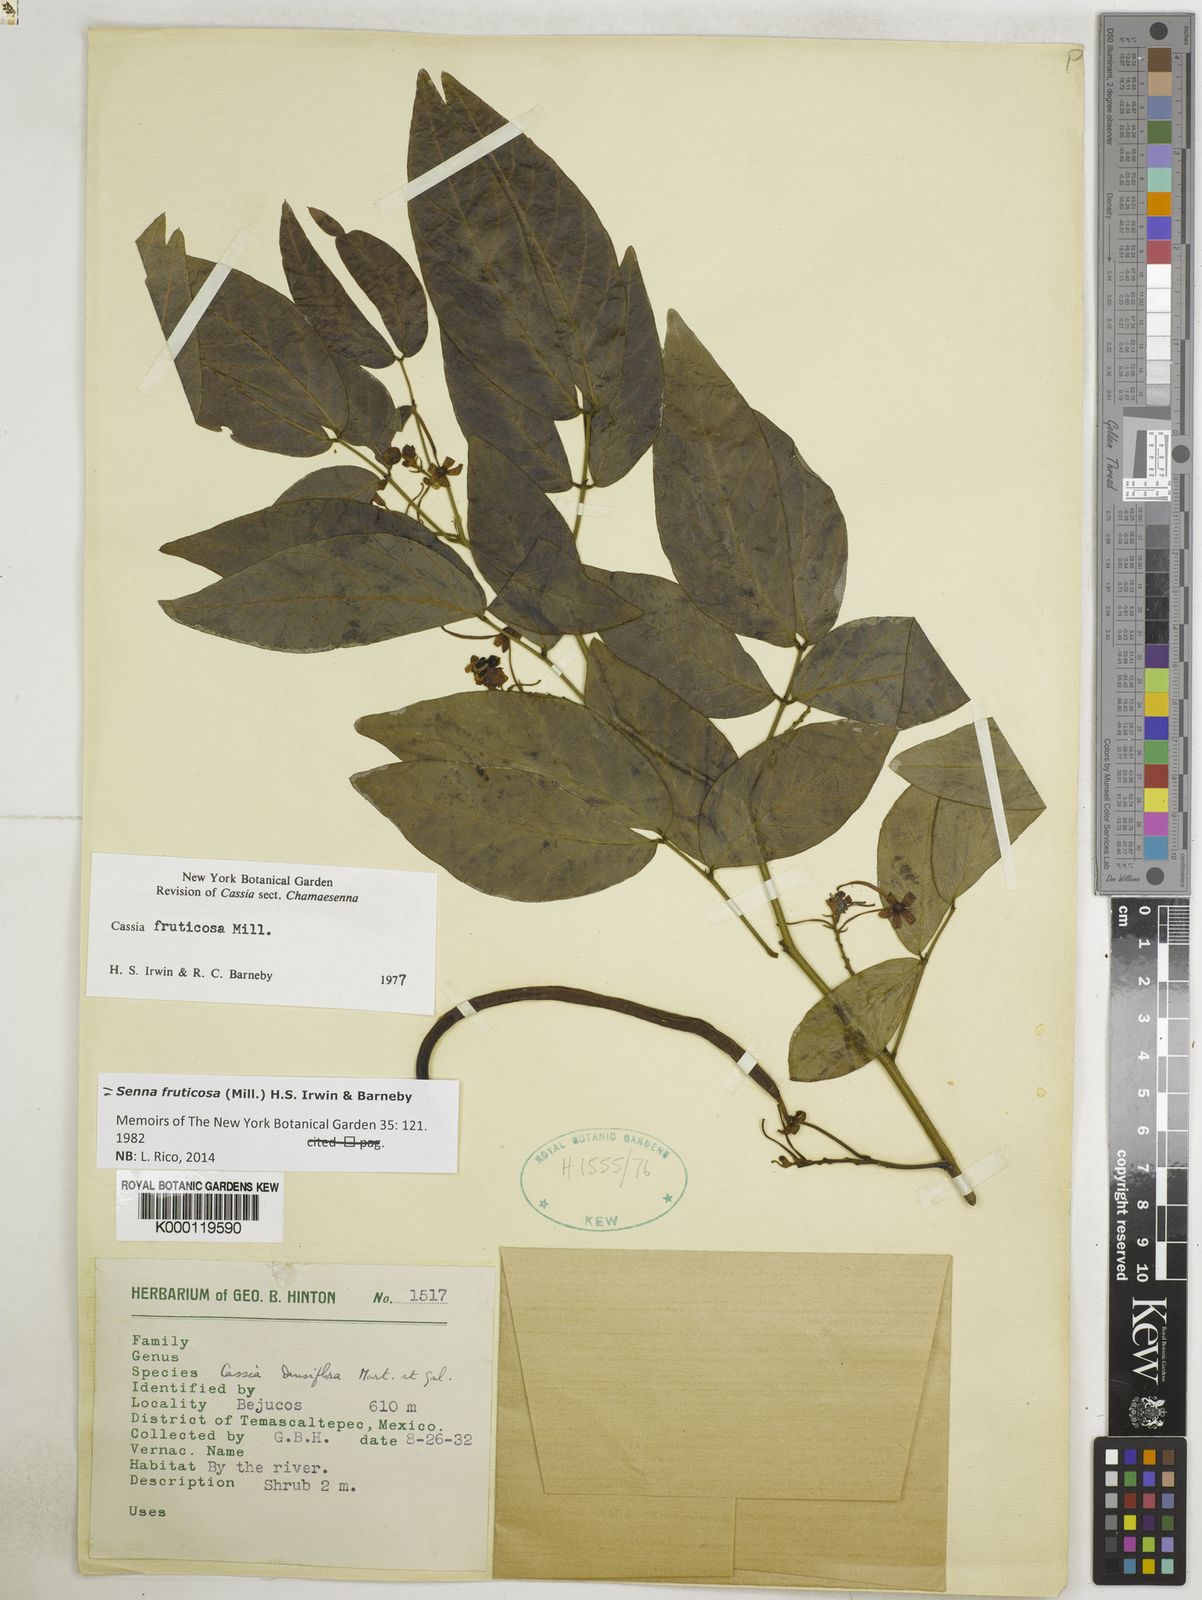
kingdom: Plantae
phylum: Tracheophyta
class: Magnoliopsida
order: Fabales
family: Fabaceae
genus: Senna
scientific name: Senna fruticosa
